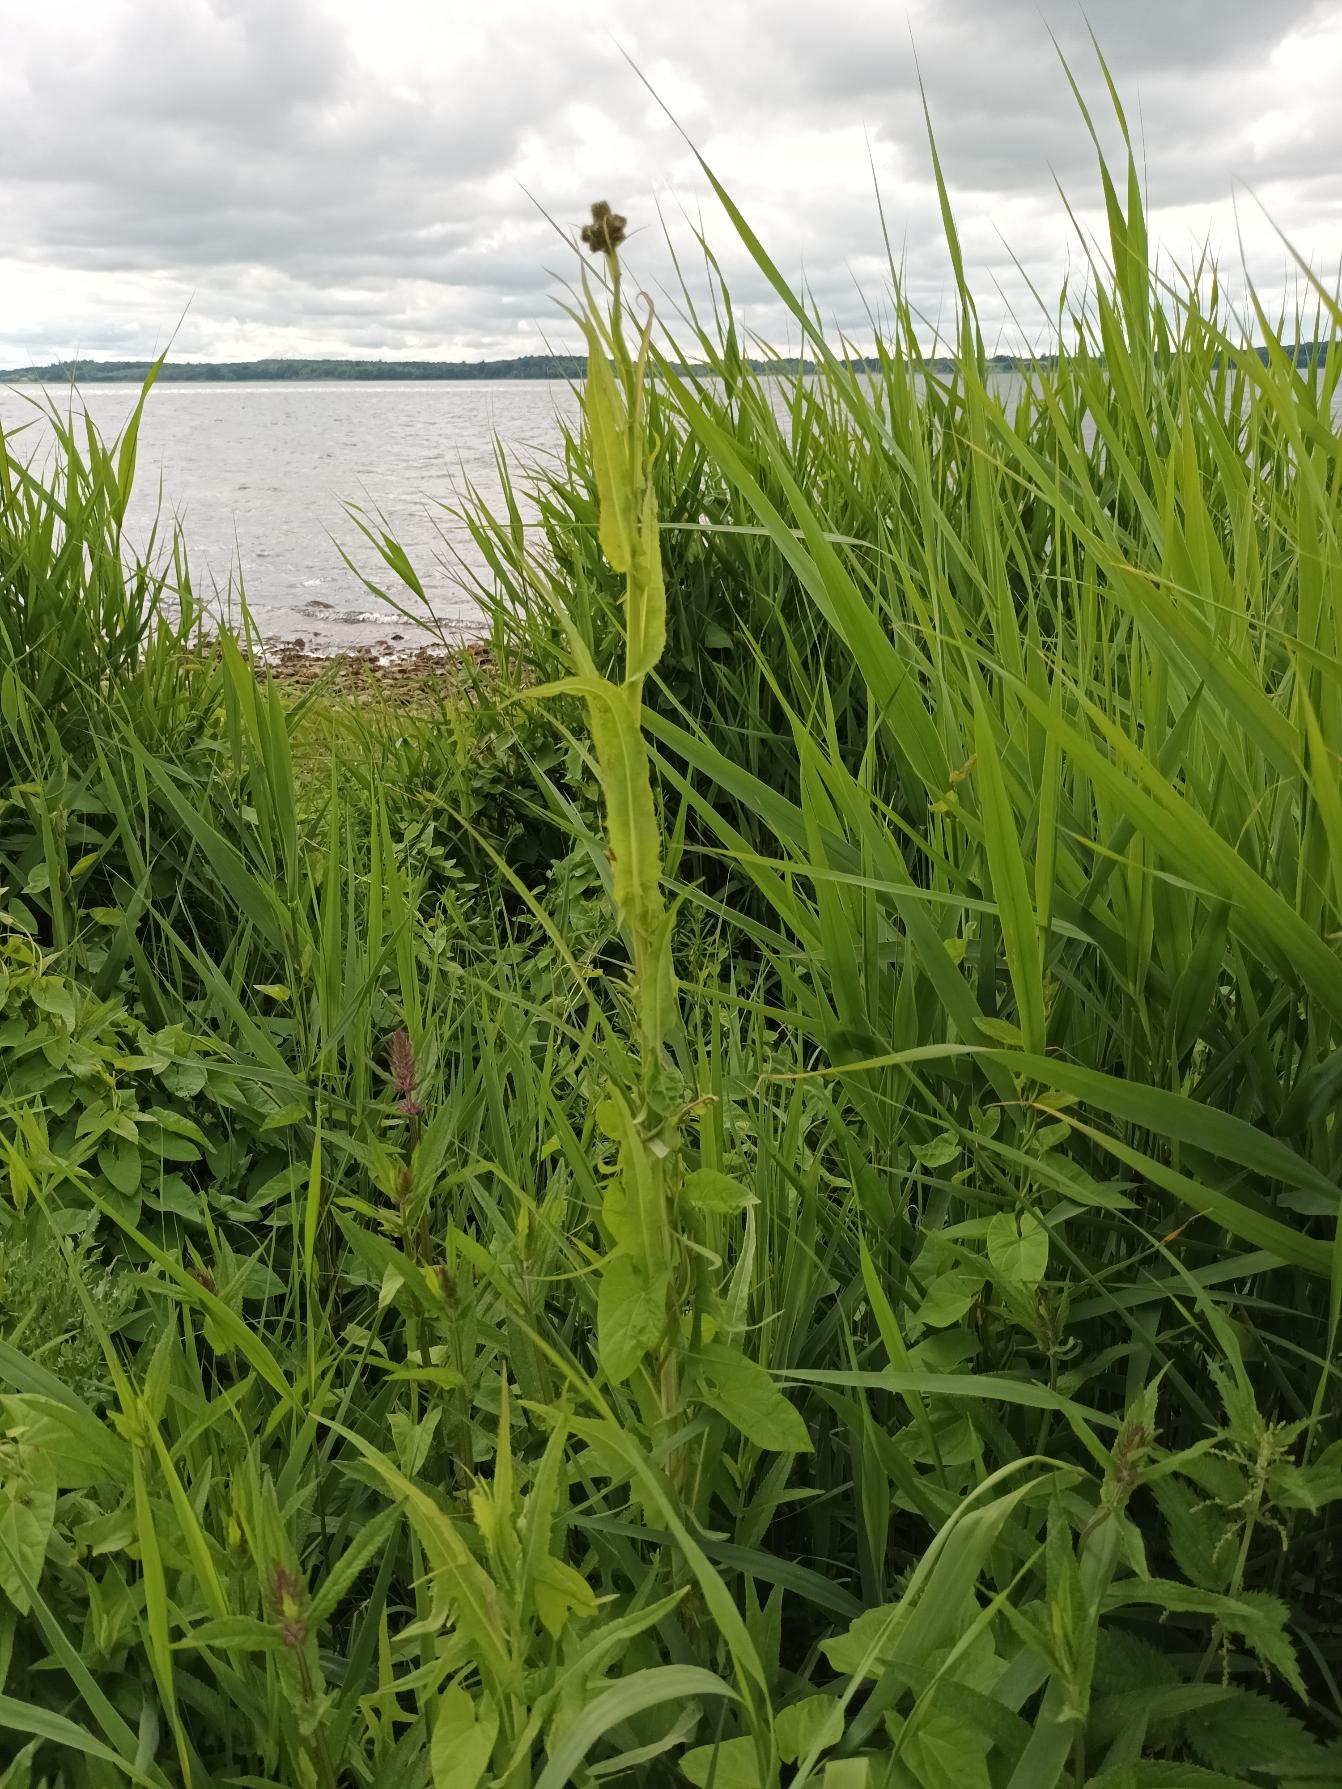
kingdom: Plantae
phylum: Tracheophyta
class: Magnoliopsida
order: Asterales
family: Asteraceae
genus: Sonchus
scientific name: Sonchus palustris
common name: Kær-svinemælk
